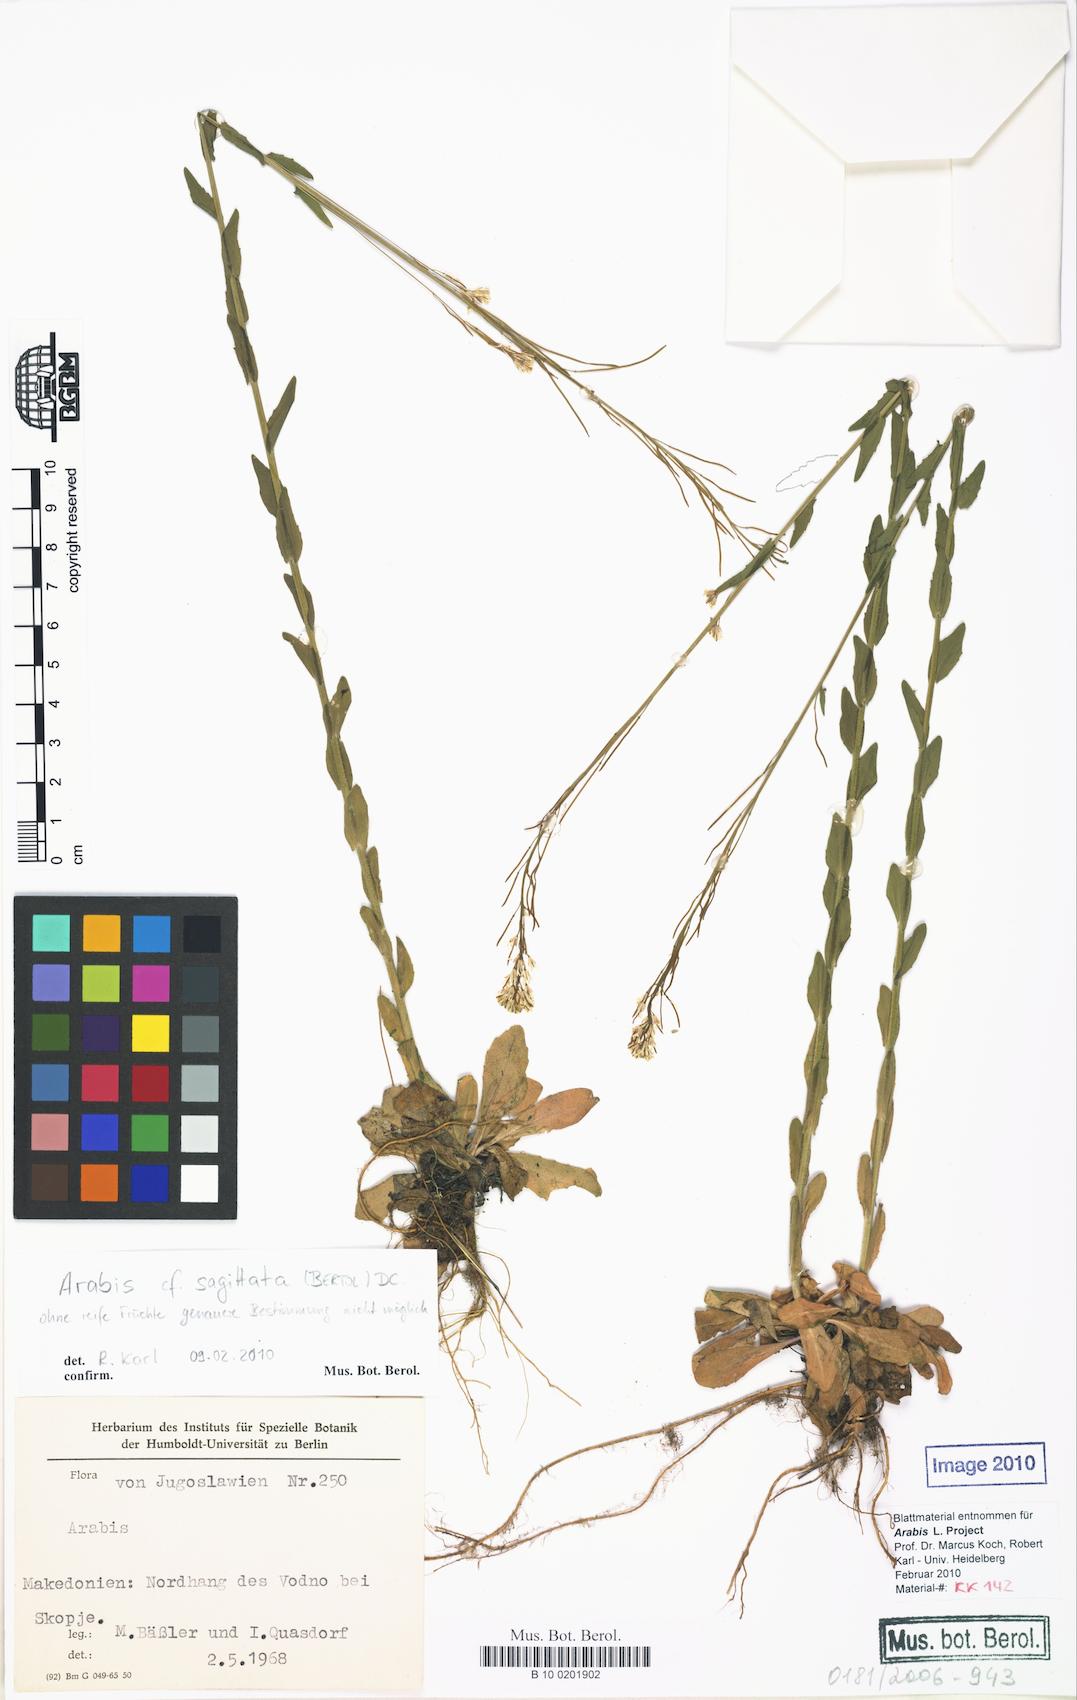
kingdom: Plantae
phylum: Tracheophyta
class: Magnoliopsida
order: Brassicales
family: Brassicaceae
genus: Arabis
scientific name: Arabis sagittata
